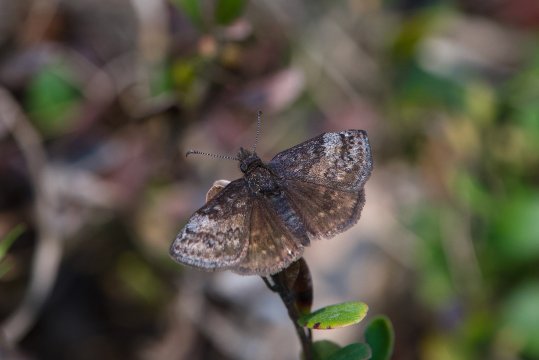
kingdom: Animalia
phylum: Arthropoda
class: Insecta
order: Lepidoptera
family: Hesperiidae
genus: Erynnis
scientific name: Erynnis icelus
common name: Dreamy Duskywing
